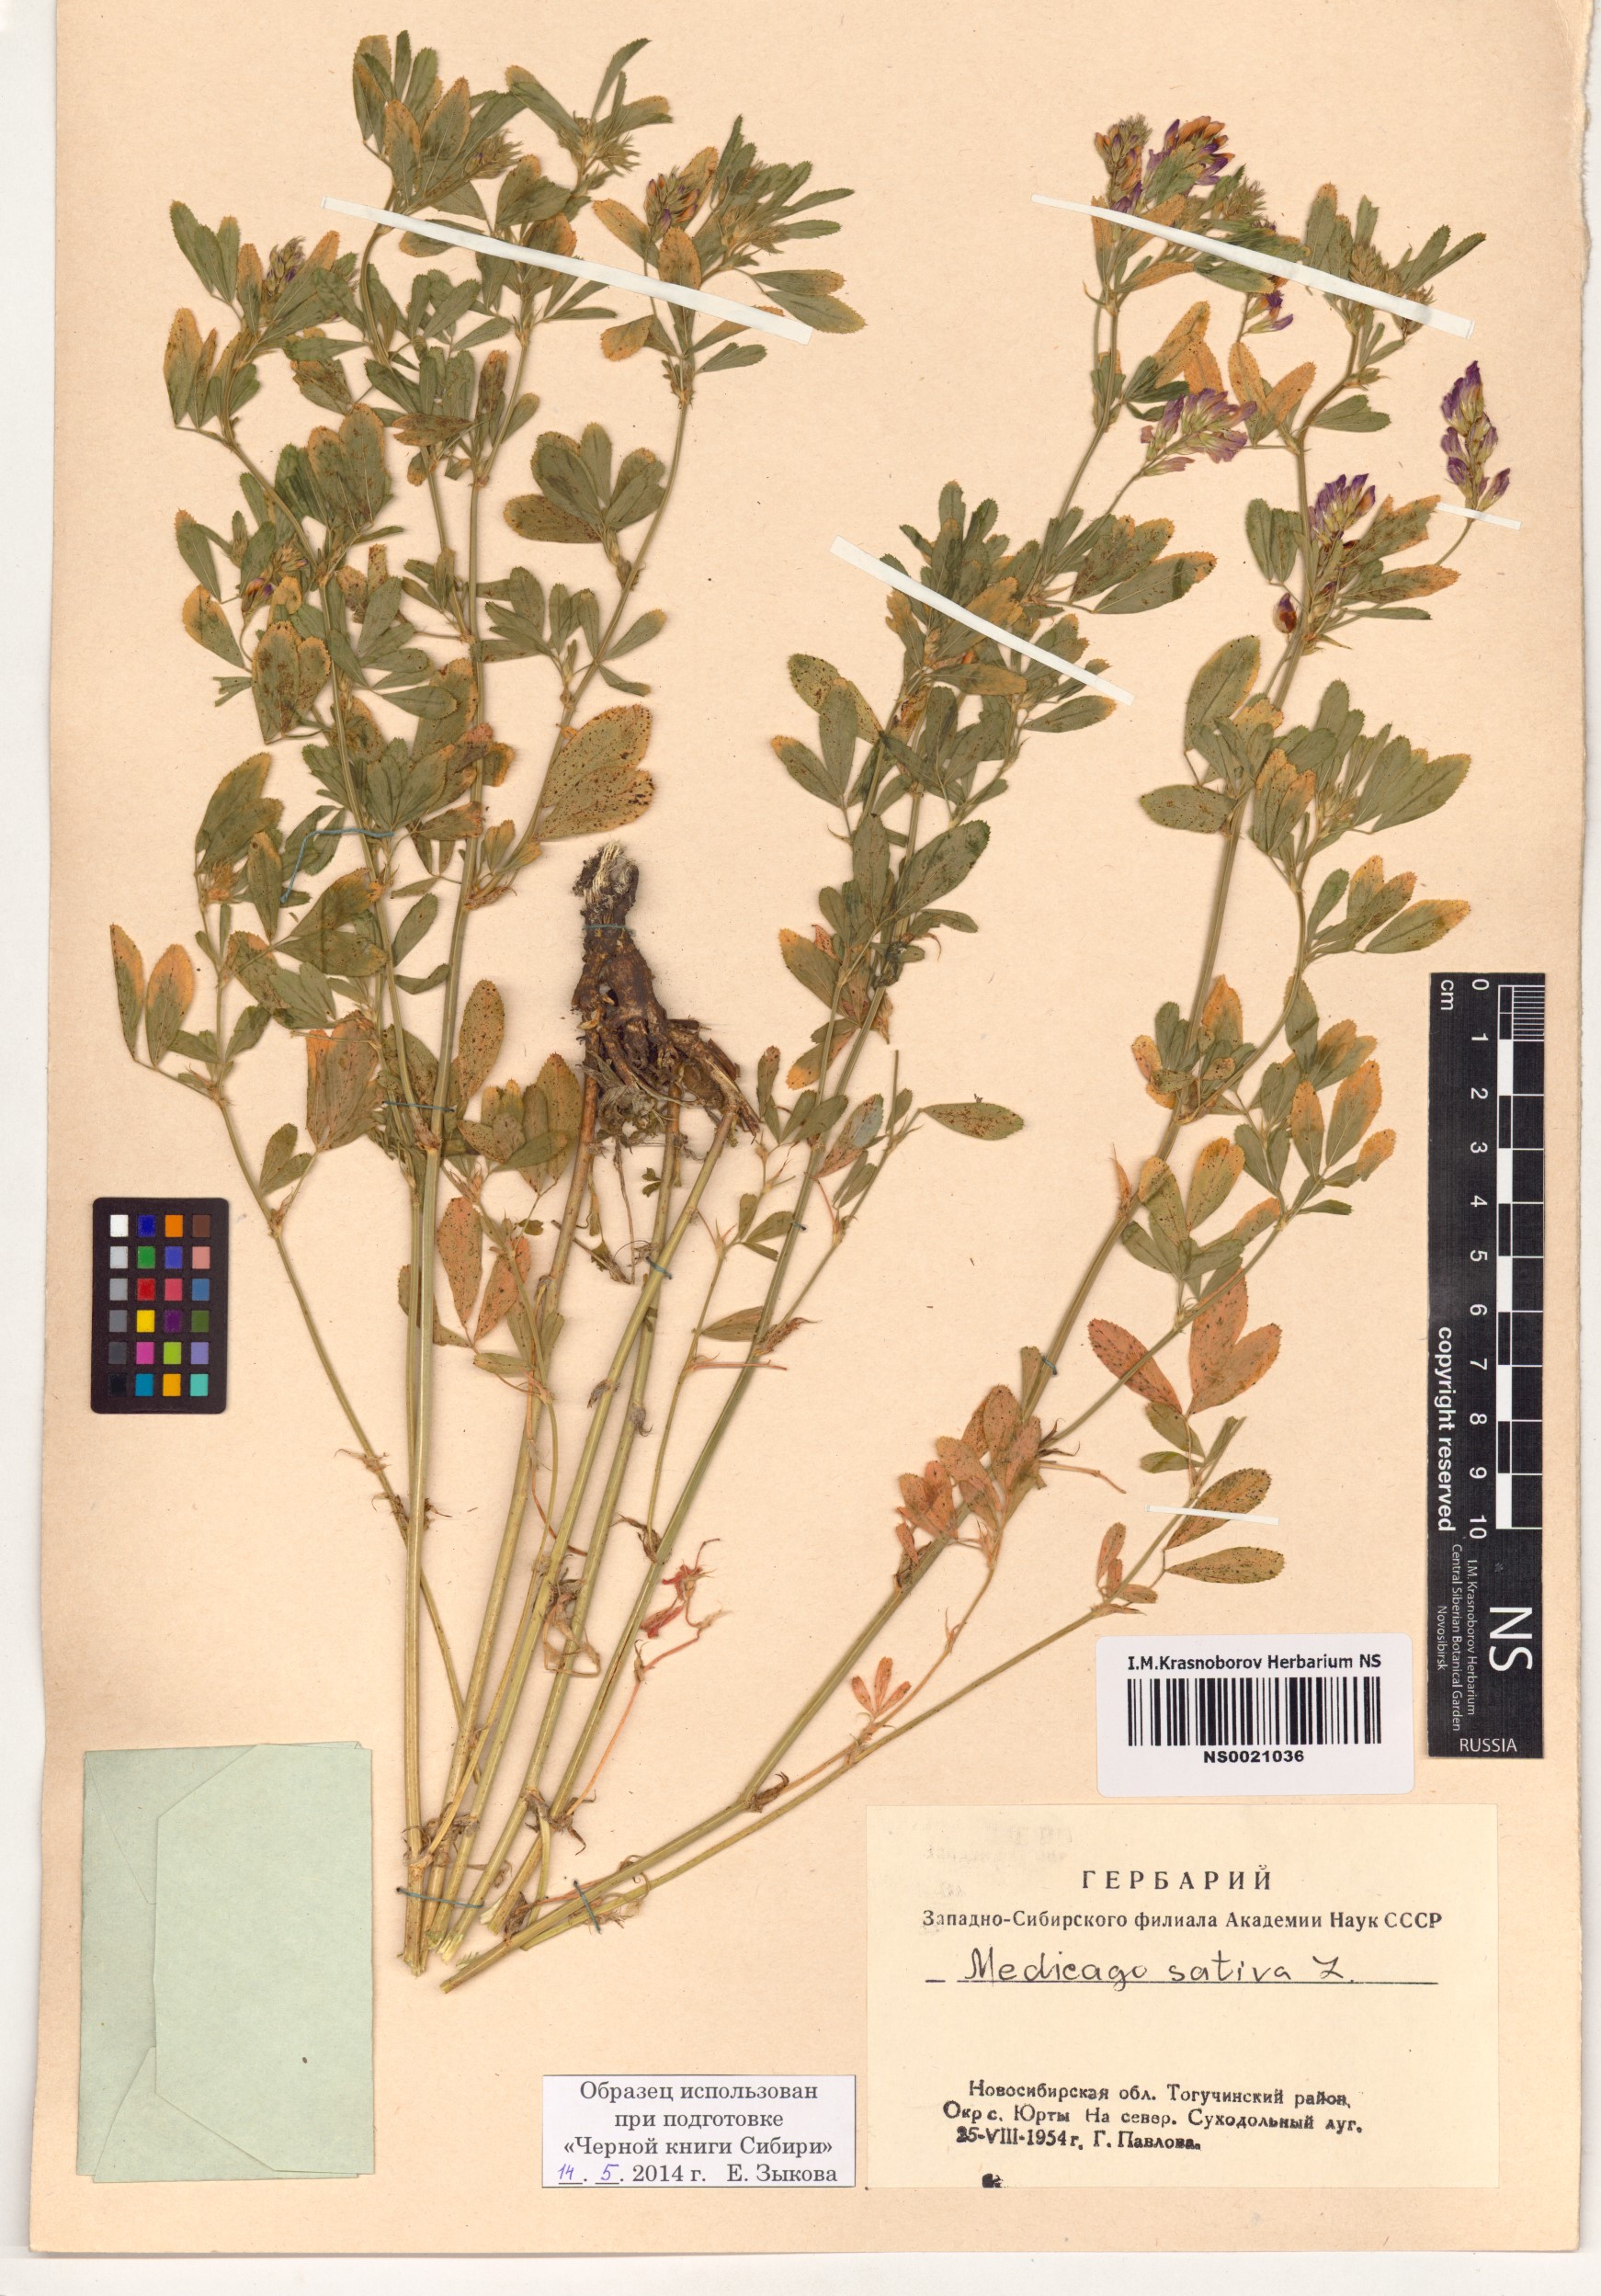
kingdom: Plantae
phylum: Tracheophyta
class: Magnoliopsida
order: Fabales
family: Fabaceae
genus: Medicago
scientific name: Medicago sativa
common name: Alfalfa
